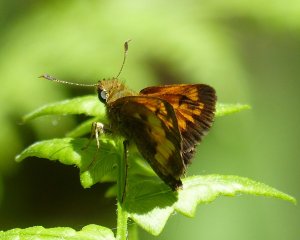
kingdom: Animalia
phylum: Arthropoda
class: Insecta
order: Lepidoptera
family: Hesperiidae
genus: Lon
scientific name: Lon hobomok
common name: Hobomok Skipper
